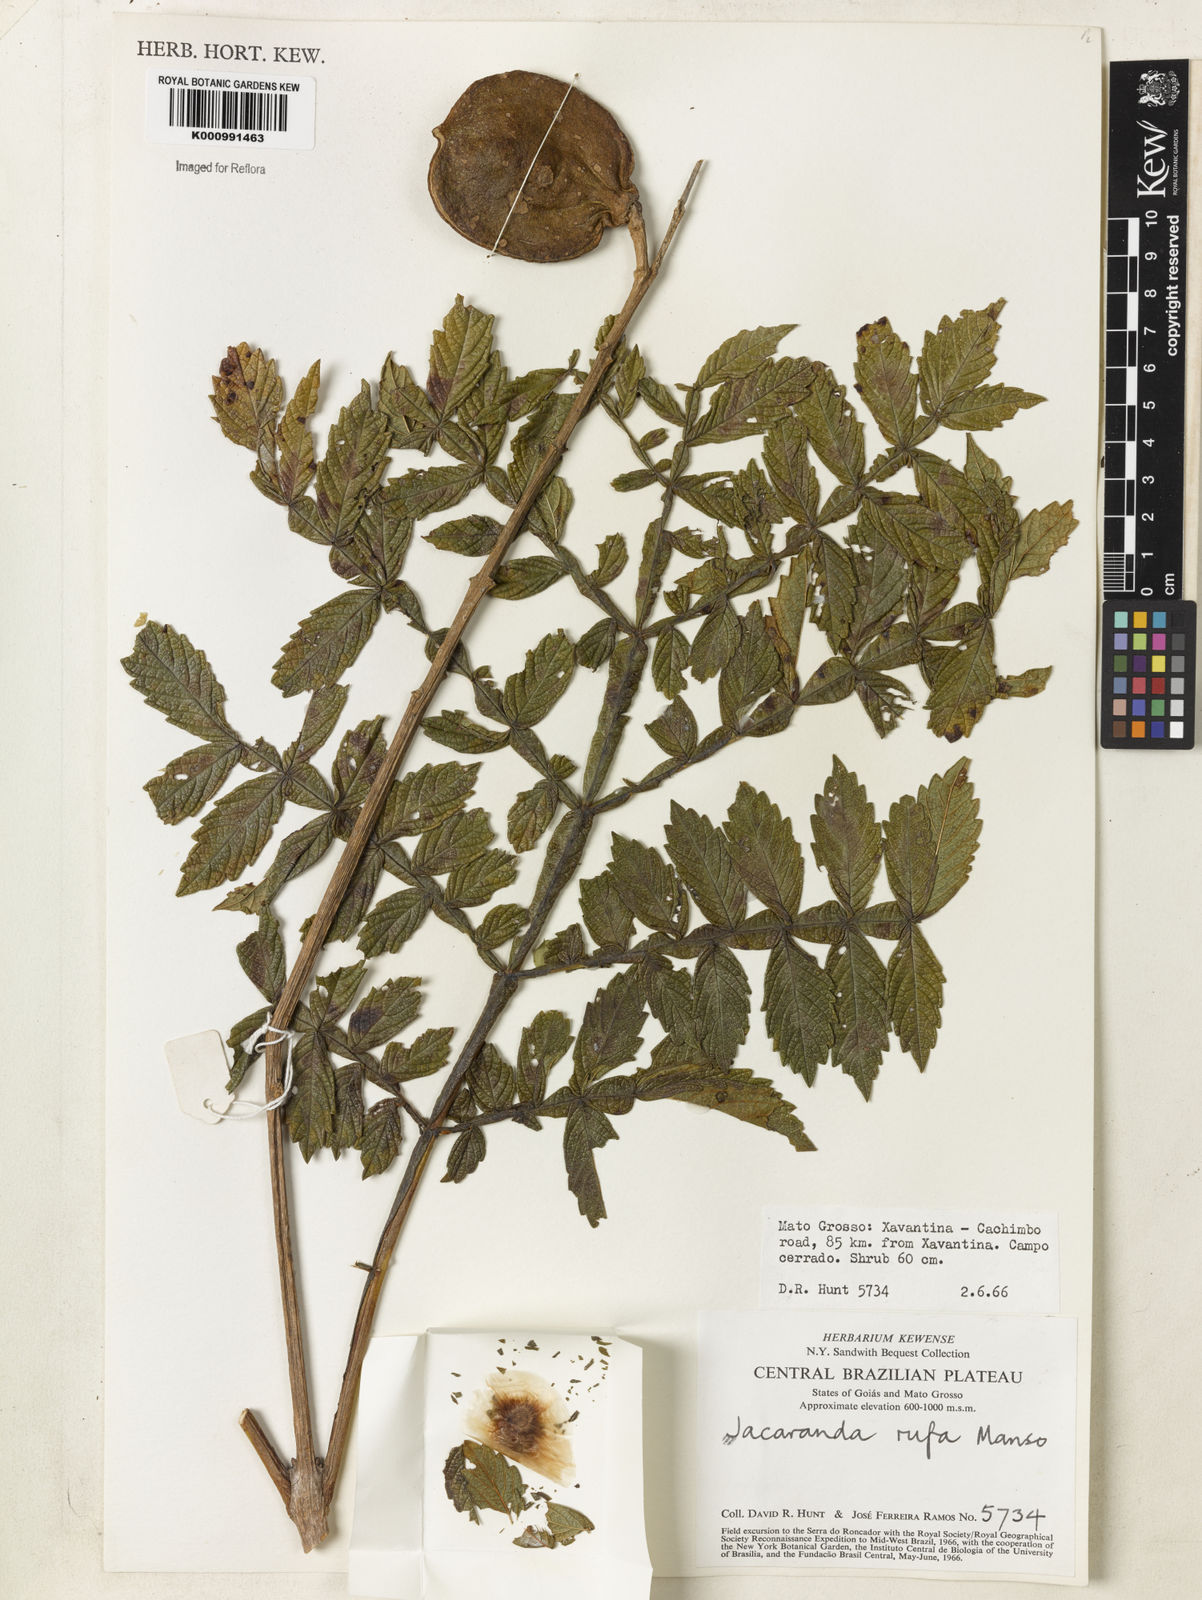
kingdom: Plantae
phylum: Tracheophyta
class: Magnoliopsida
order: Lamiales
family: Bignoniaceae
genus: Jacaranda
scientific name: Jacaranda rufa
